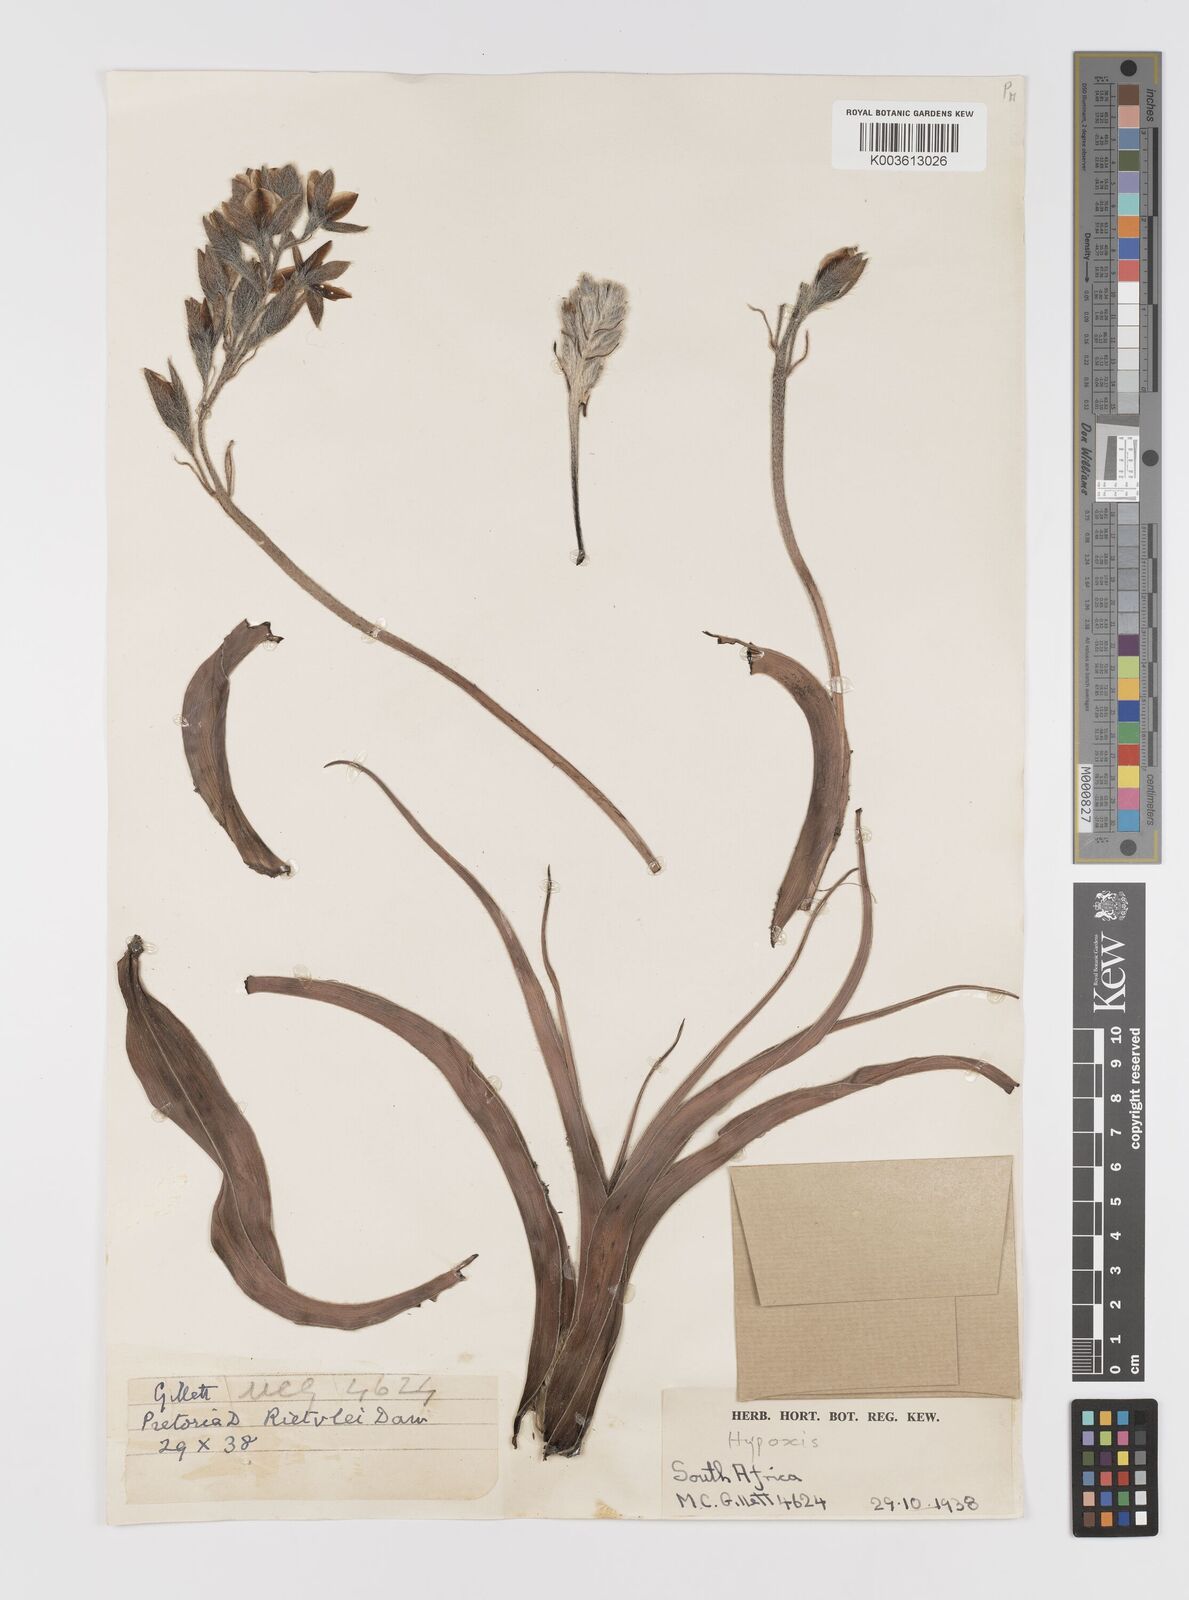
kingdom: Plantae
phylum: Tracheophyta
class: Liliopsida
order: Asparagales
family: Hypoxidaceae
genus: Hypoxis
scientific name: Hypoxis obtusa
